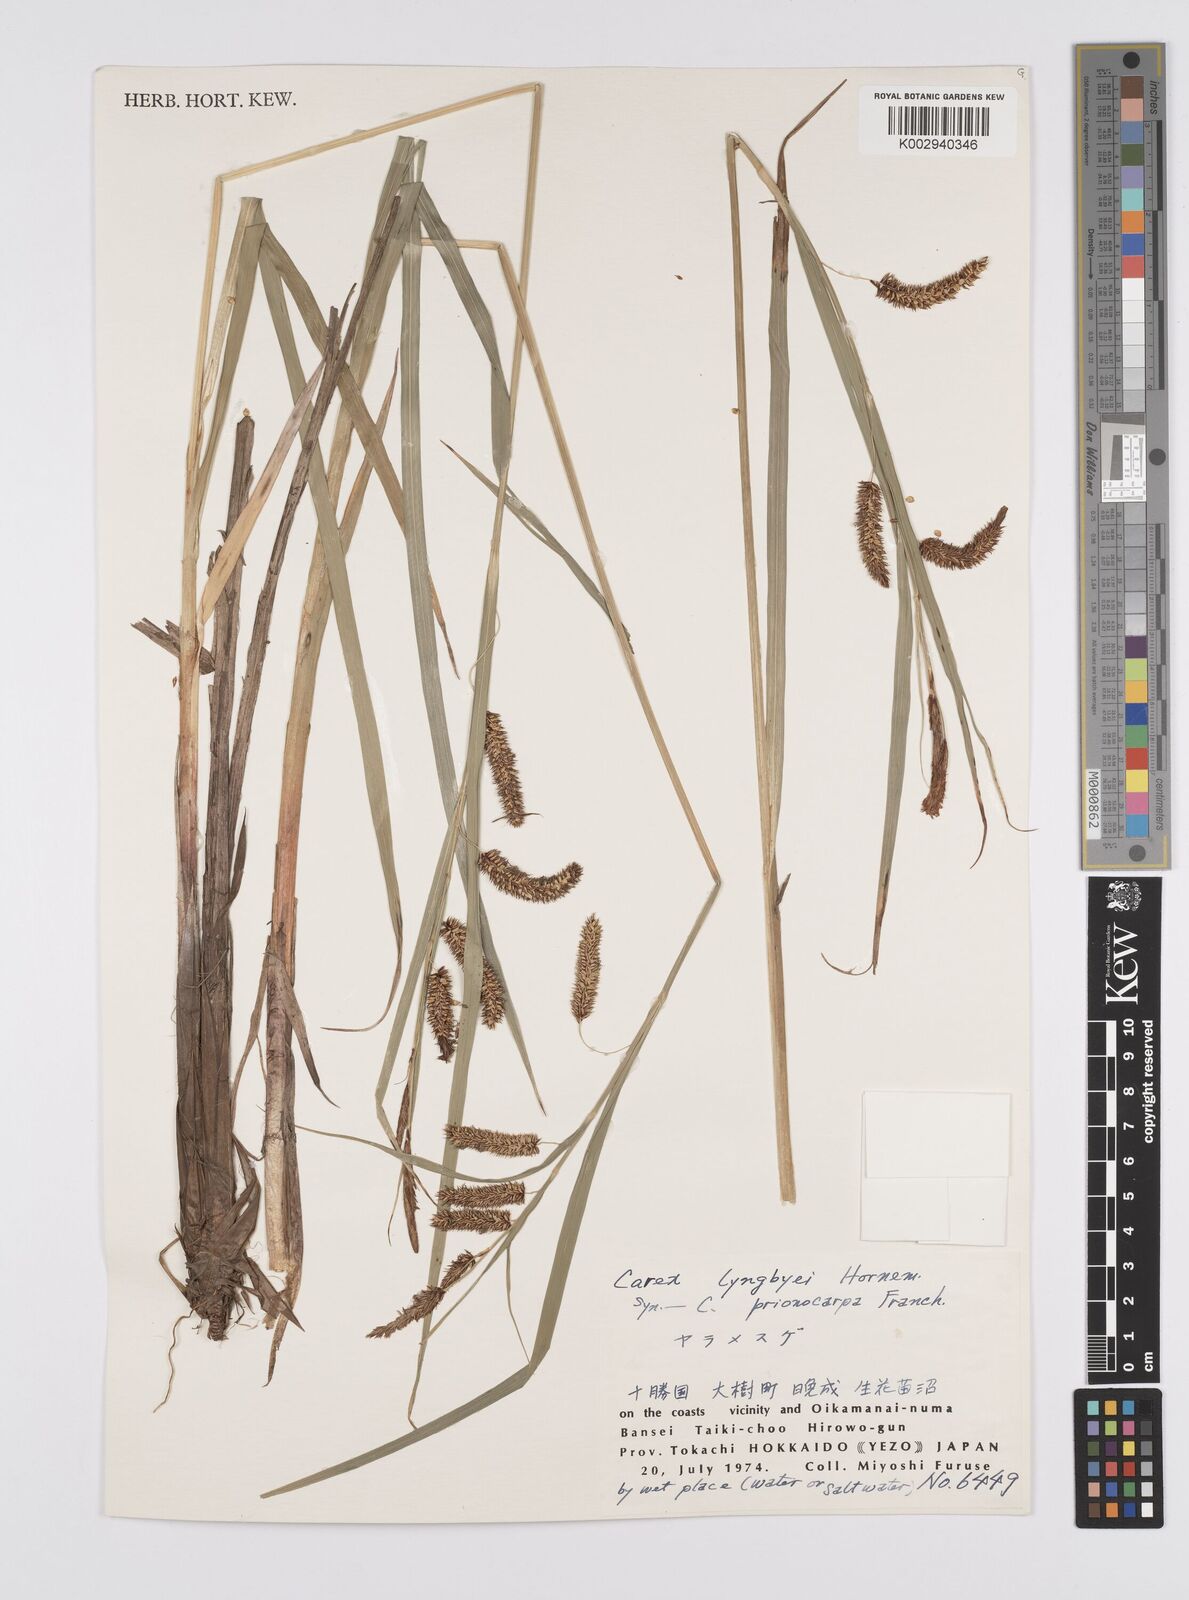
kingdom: Plantae
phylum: Tracheophyta
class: Liliopsida
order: Poales
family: Cyperaceae
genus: Carex
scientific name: Carex lyngbyei
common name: Lyngbye's sedge
